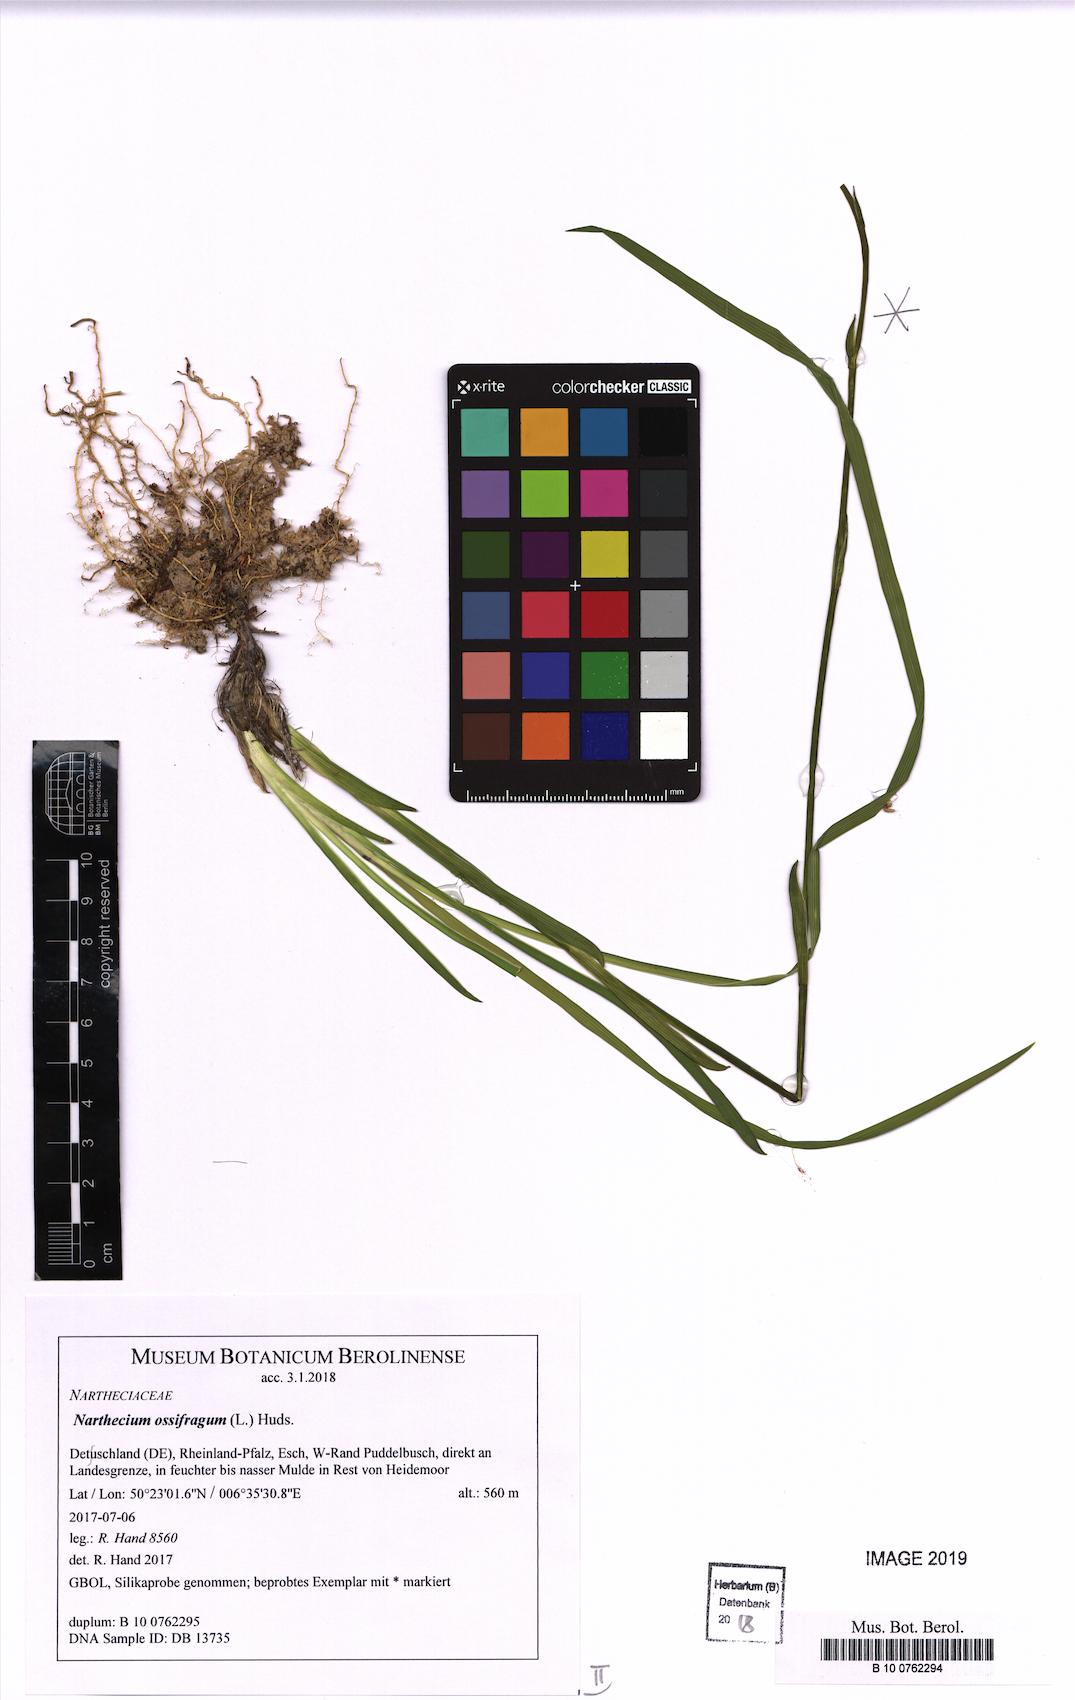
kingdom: Plantae
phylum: Tracheophyta
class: Liliopsida
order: Dioscoreales
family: Nartheciaceae
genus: Narthecium
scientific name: Narthecium ossifragum
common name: Bog asphodel
